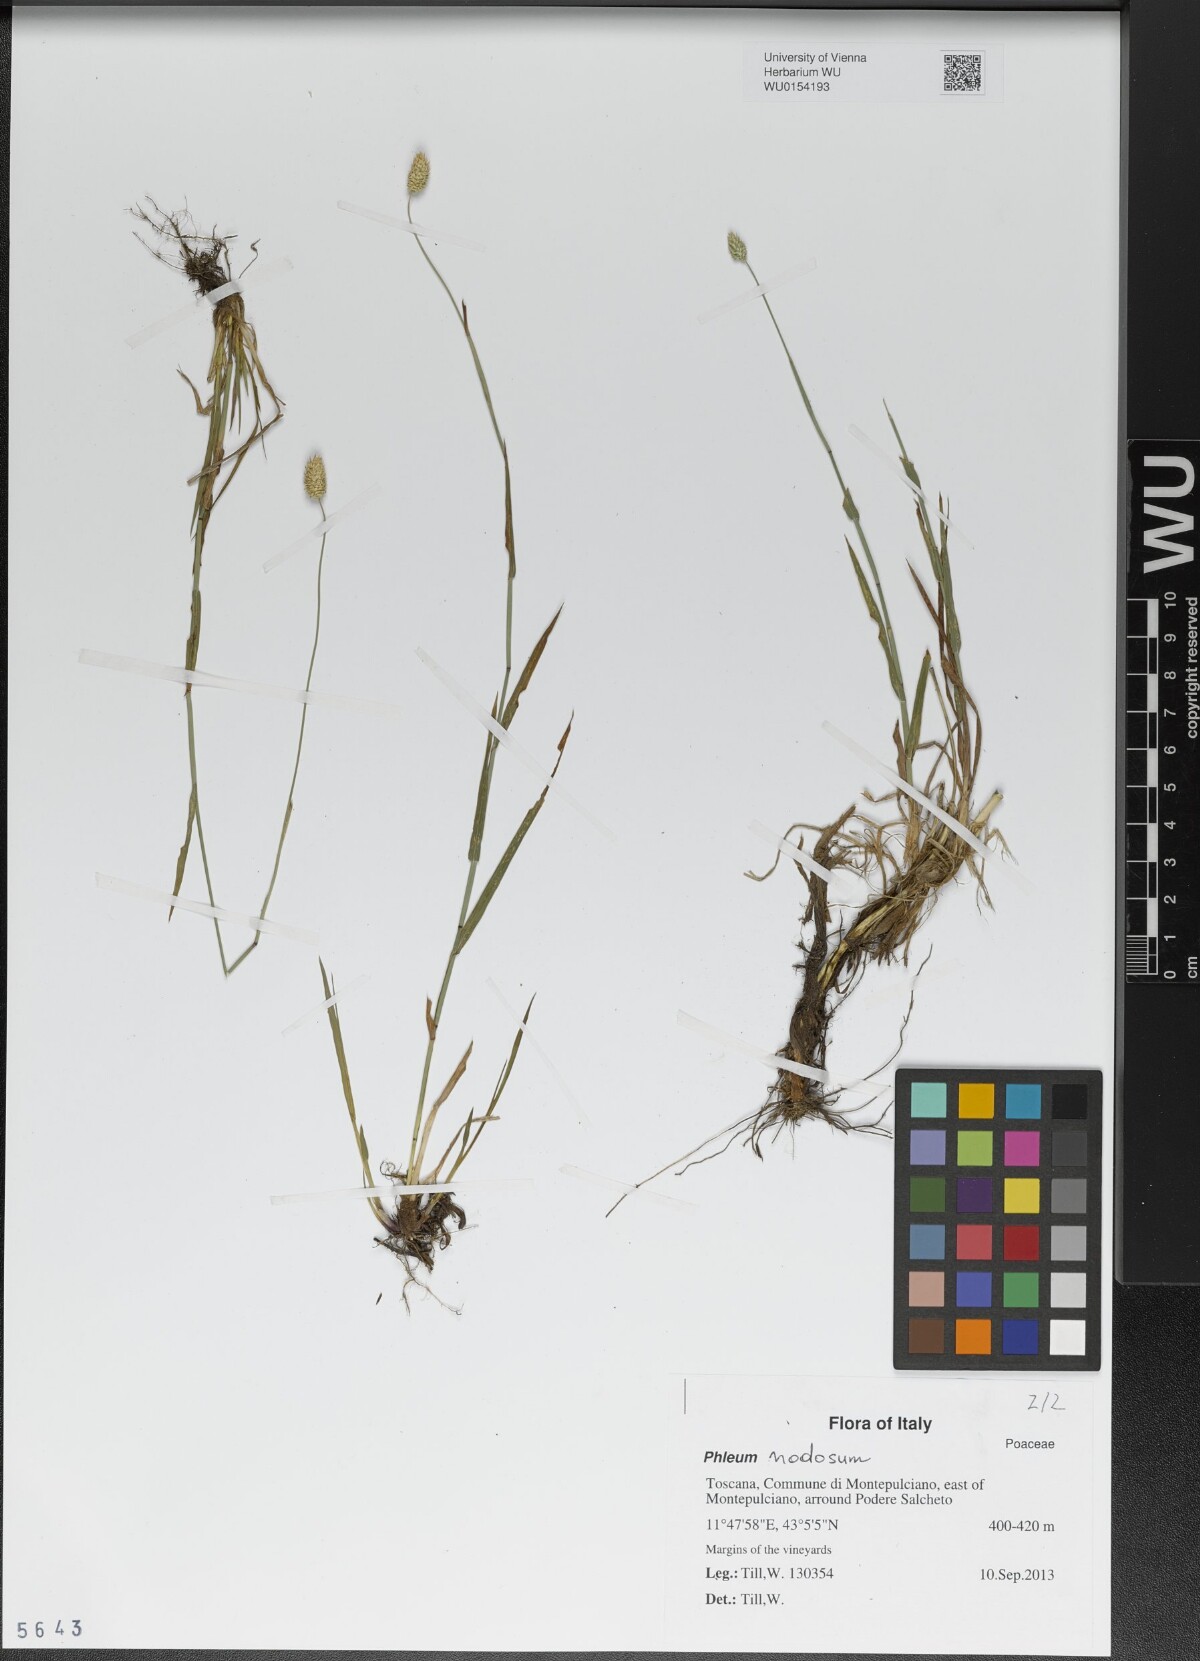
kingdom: Plantae
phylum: Tracheophyta
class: Liliopsida
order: Poales
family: Poaceae
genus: Phleum
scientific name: Phleum pratense
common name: Timothy grass
